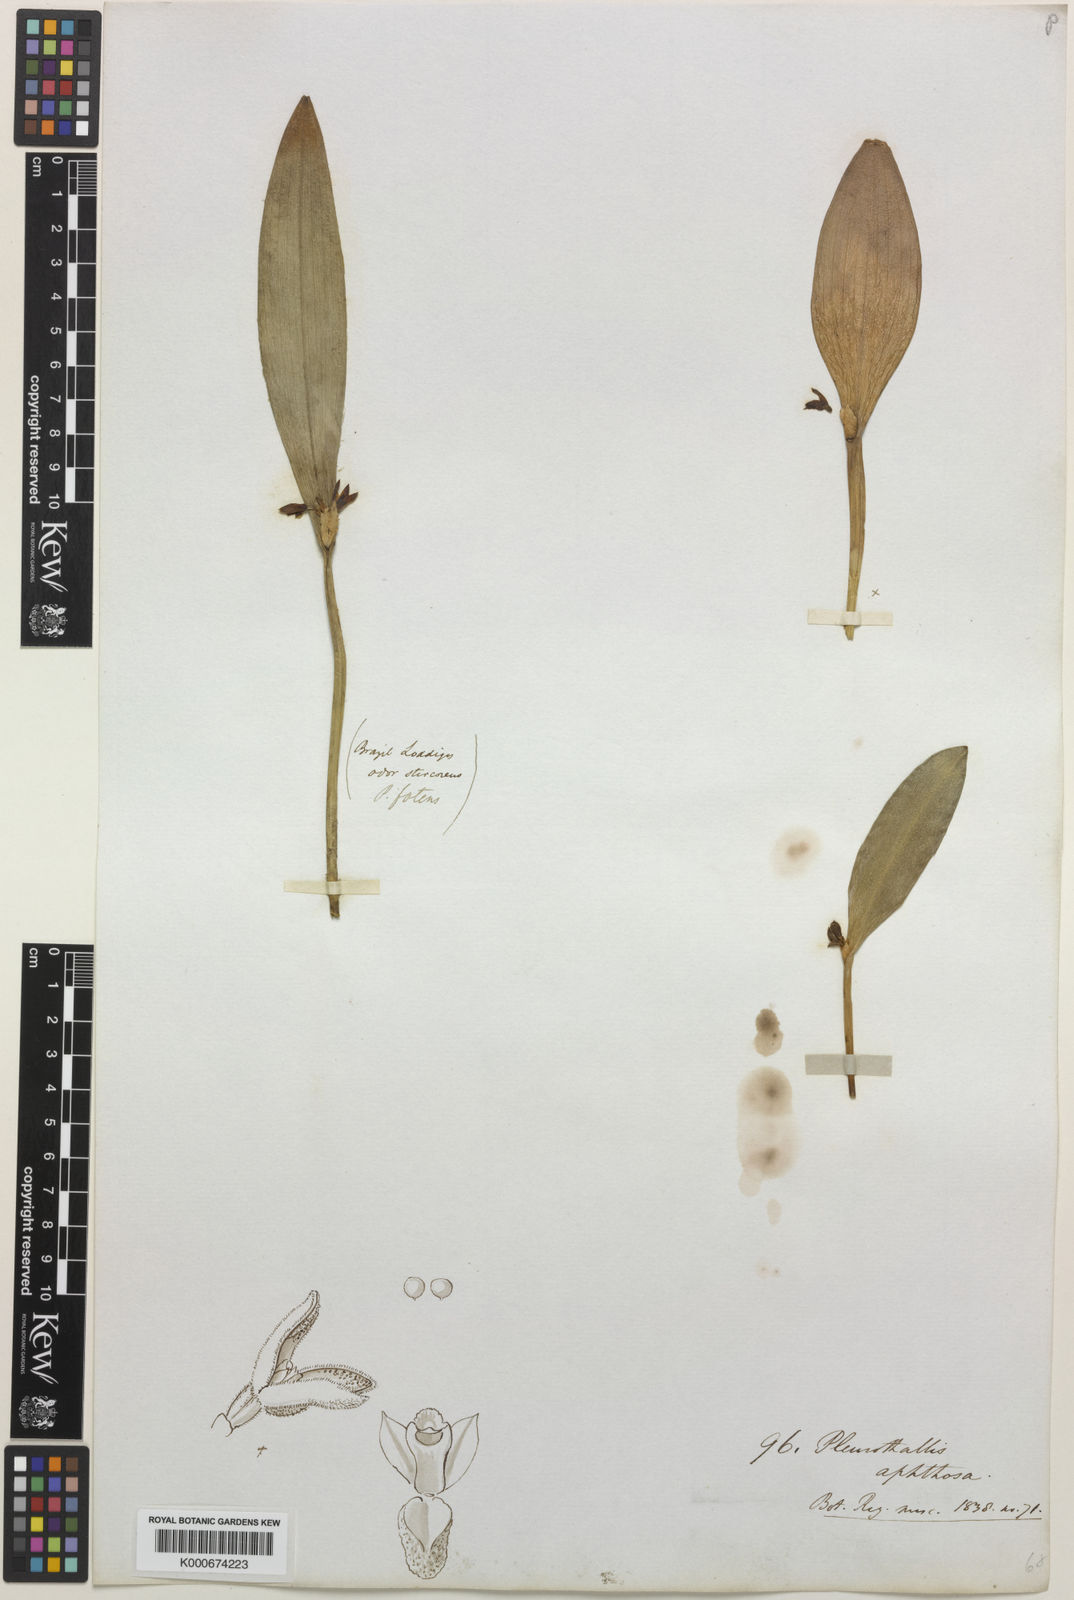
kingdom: Plantae
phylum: Tracheophyta
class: Liliopsida
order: Asparagales
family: Orchidaceae
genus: Acianthera
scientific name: Acianthera aphthosa
